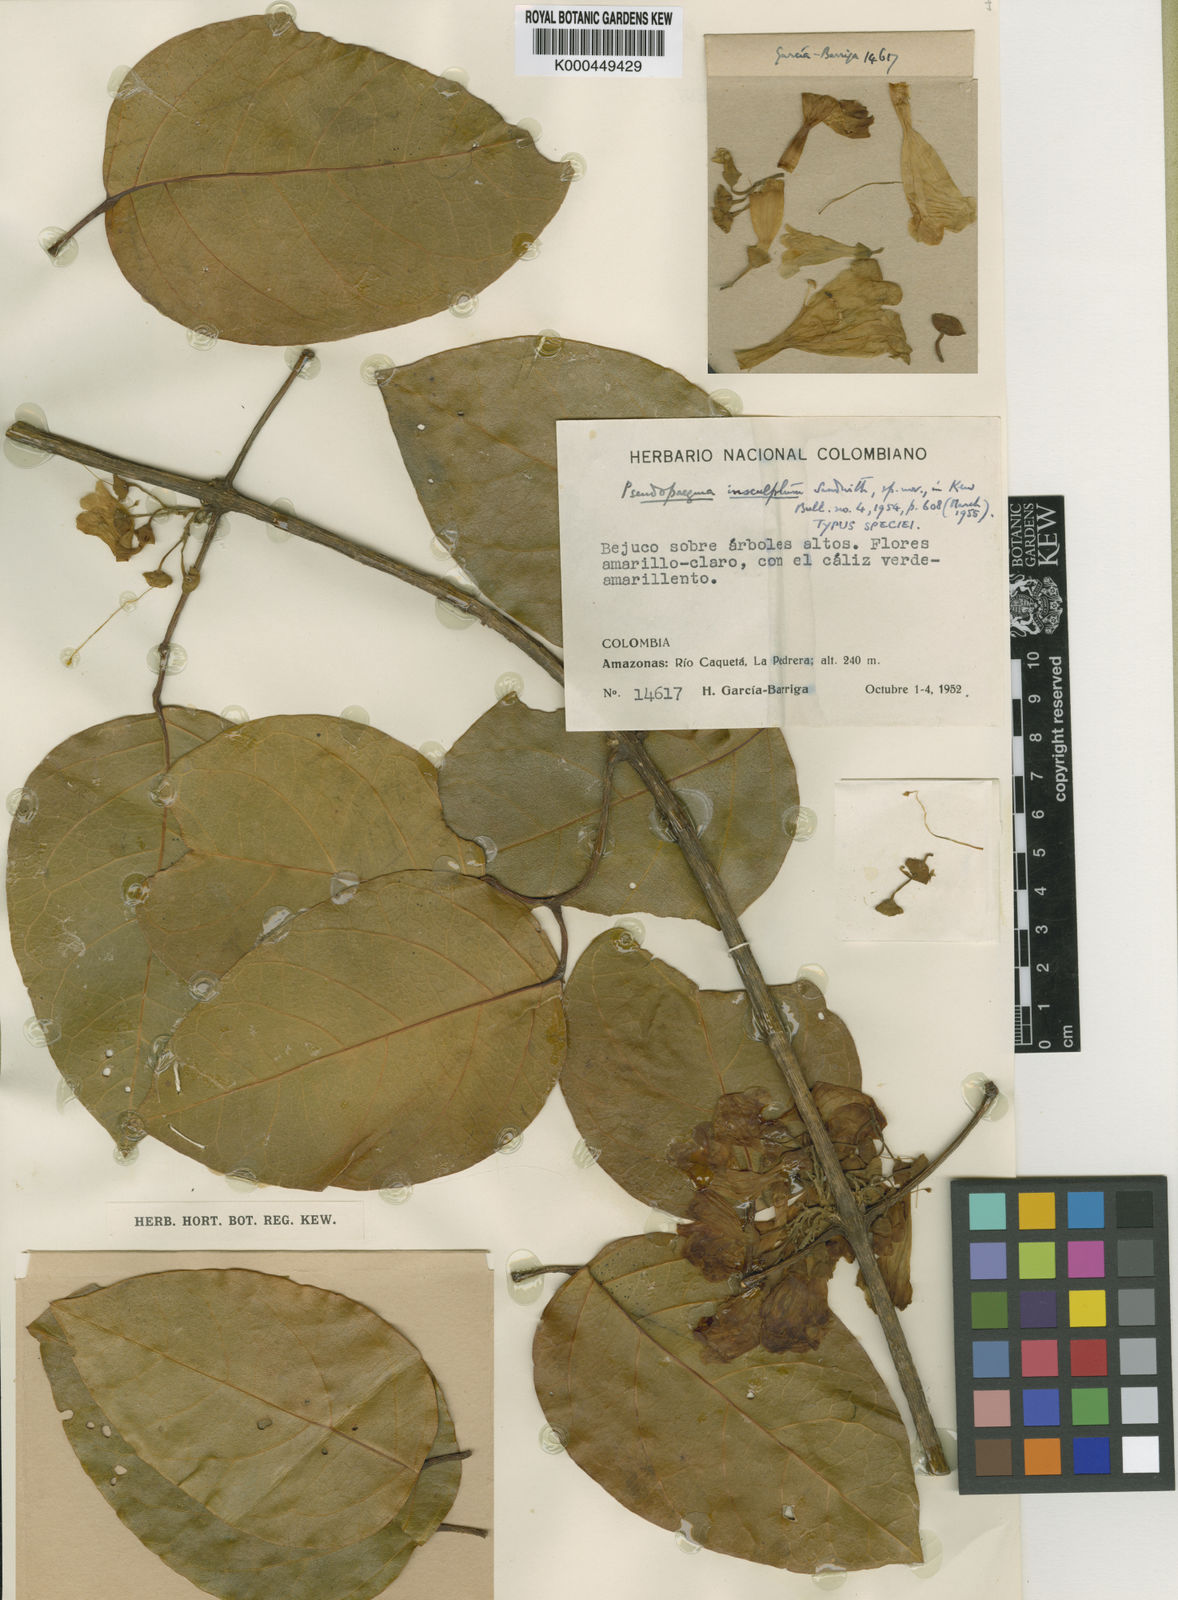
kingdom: Plantae
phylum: Tracheophyta
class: Magnoliopsida
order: Lamiales
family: Bignoniaceae
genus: Anemopaegma
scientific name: Anemopaegma insculptum
